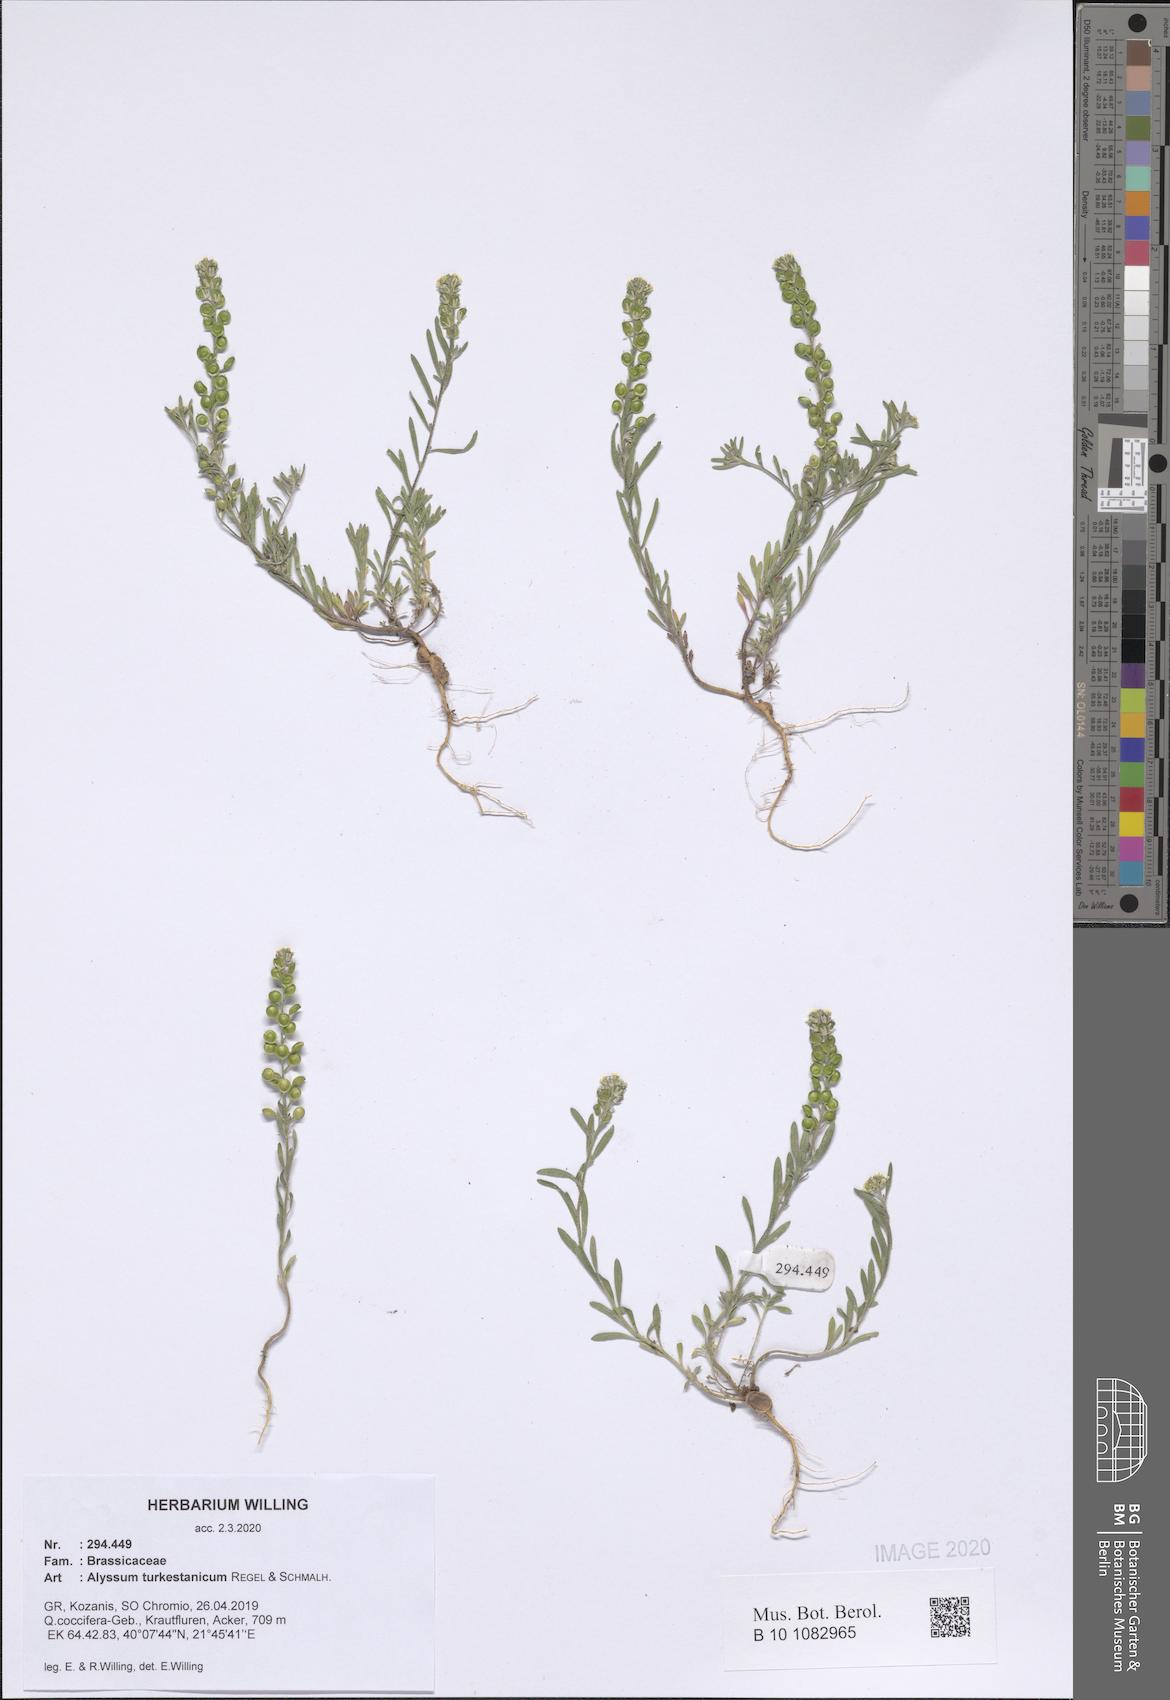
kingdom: Plantae
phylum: Tracheophyta
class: Magnoliopsida
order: Brassicales
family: Brassicaceae
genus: Alyssum
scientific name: Alyssum turkestanicum
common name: Desert alyssum
